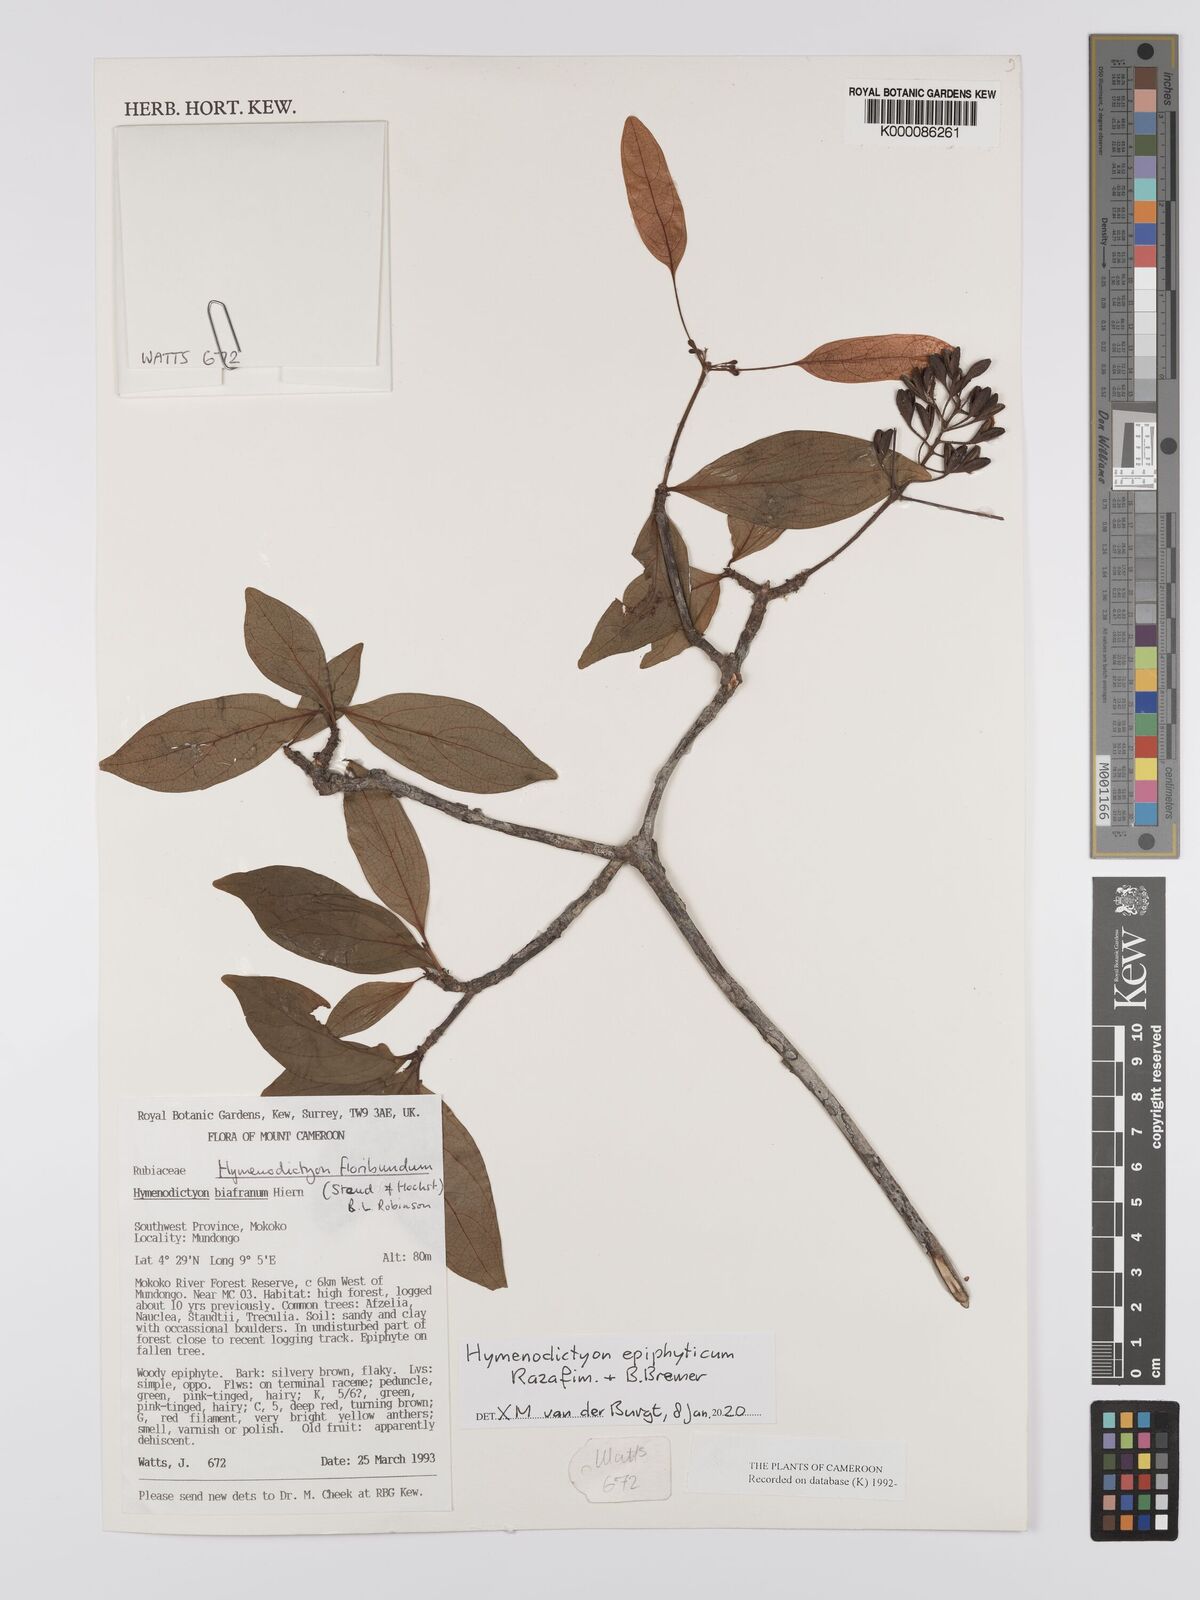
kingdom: Plantae
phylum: Tracheophyta
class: Magnoliopsida
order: Gentianales
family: Rubiaceae
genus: Hymenodictyon
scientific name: Hymenodictyon floribundum
